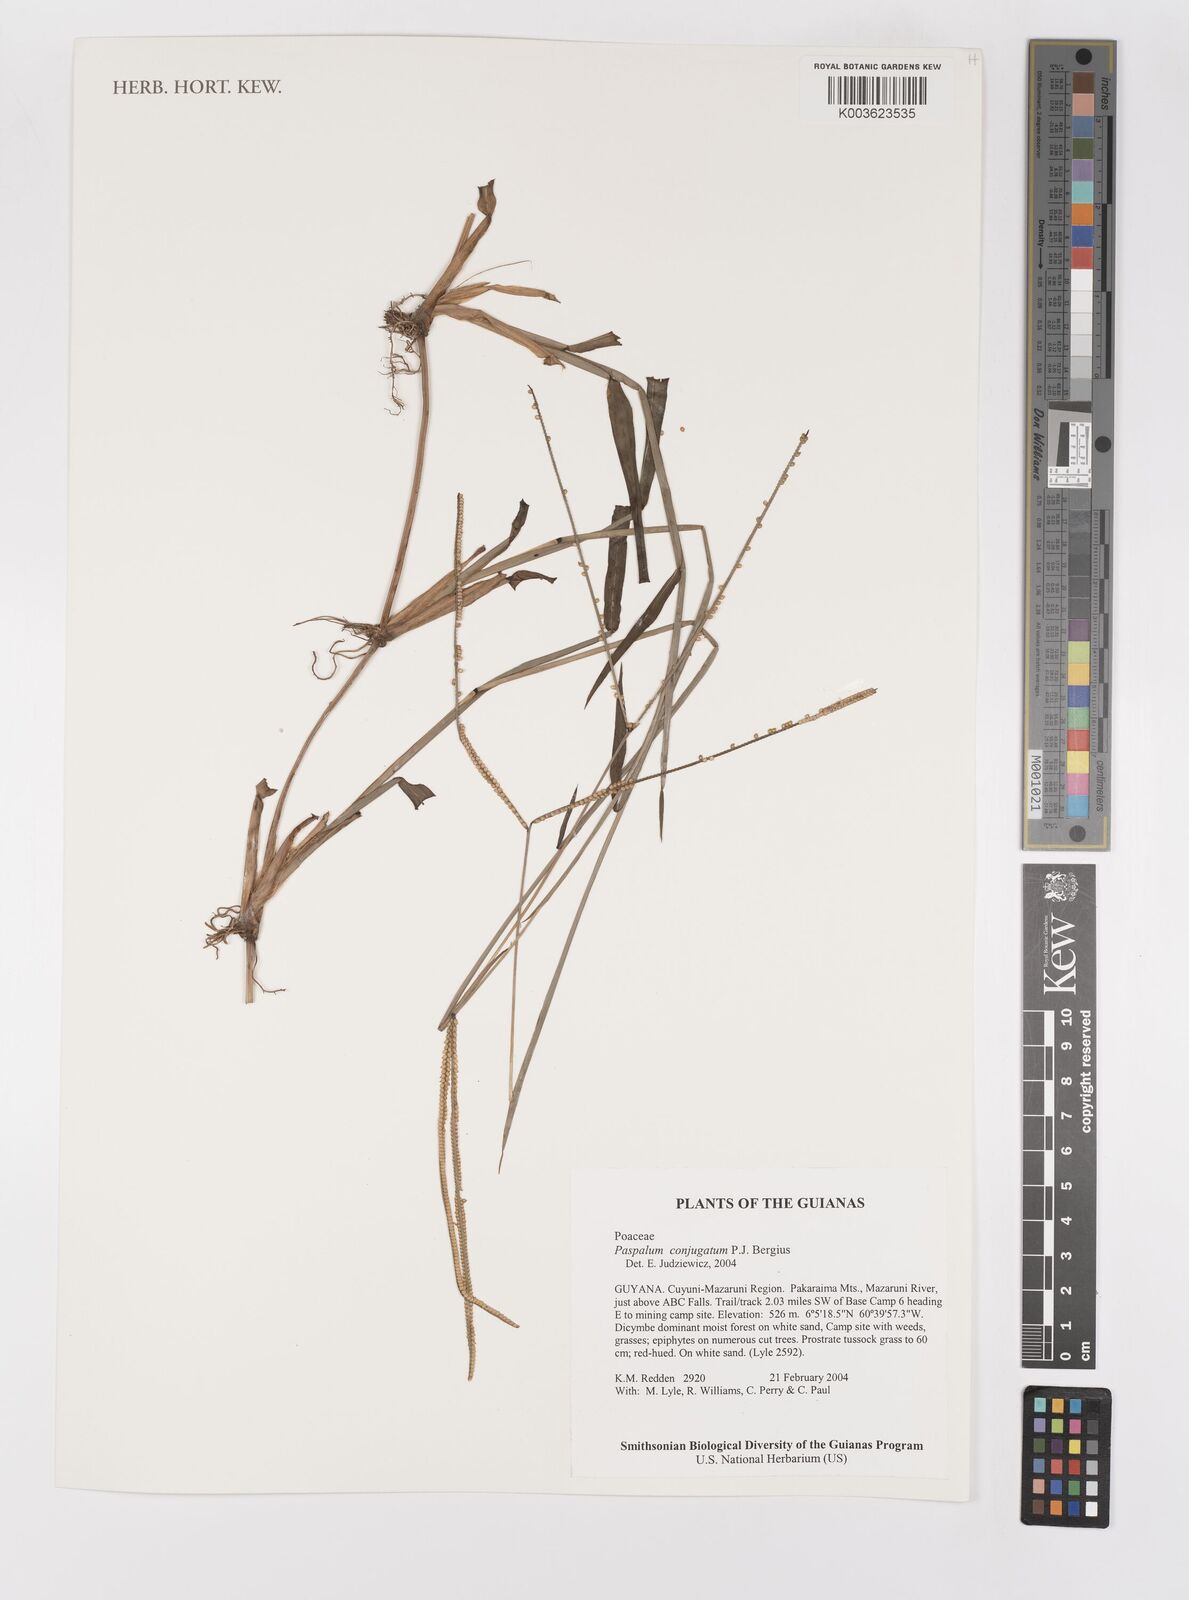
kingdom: Plantae
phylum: Tracheophyta
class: Liliopsida
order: Poales
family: Poaceae
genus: Paspalum
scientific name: Paspalum conjugatum
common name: Hilograss
